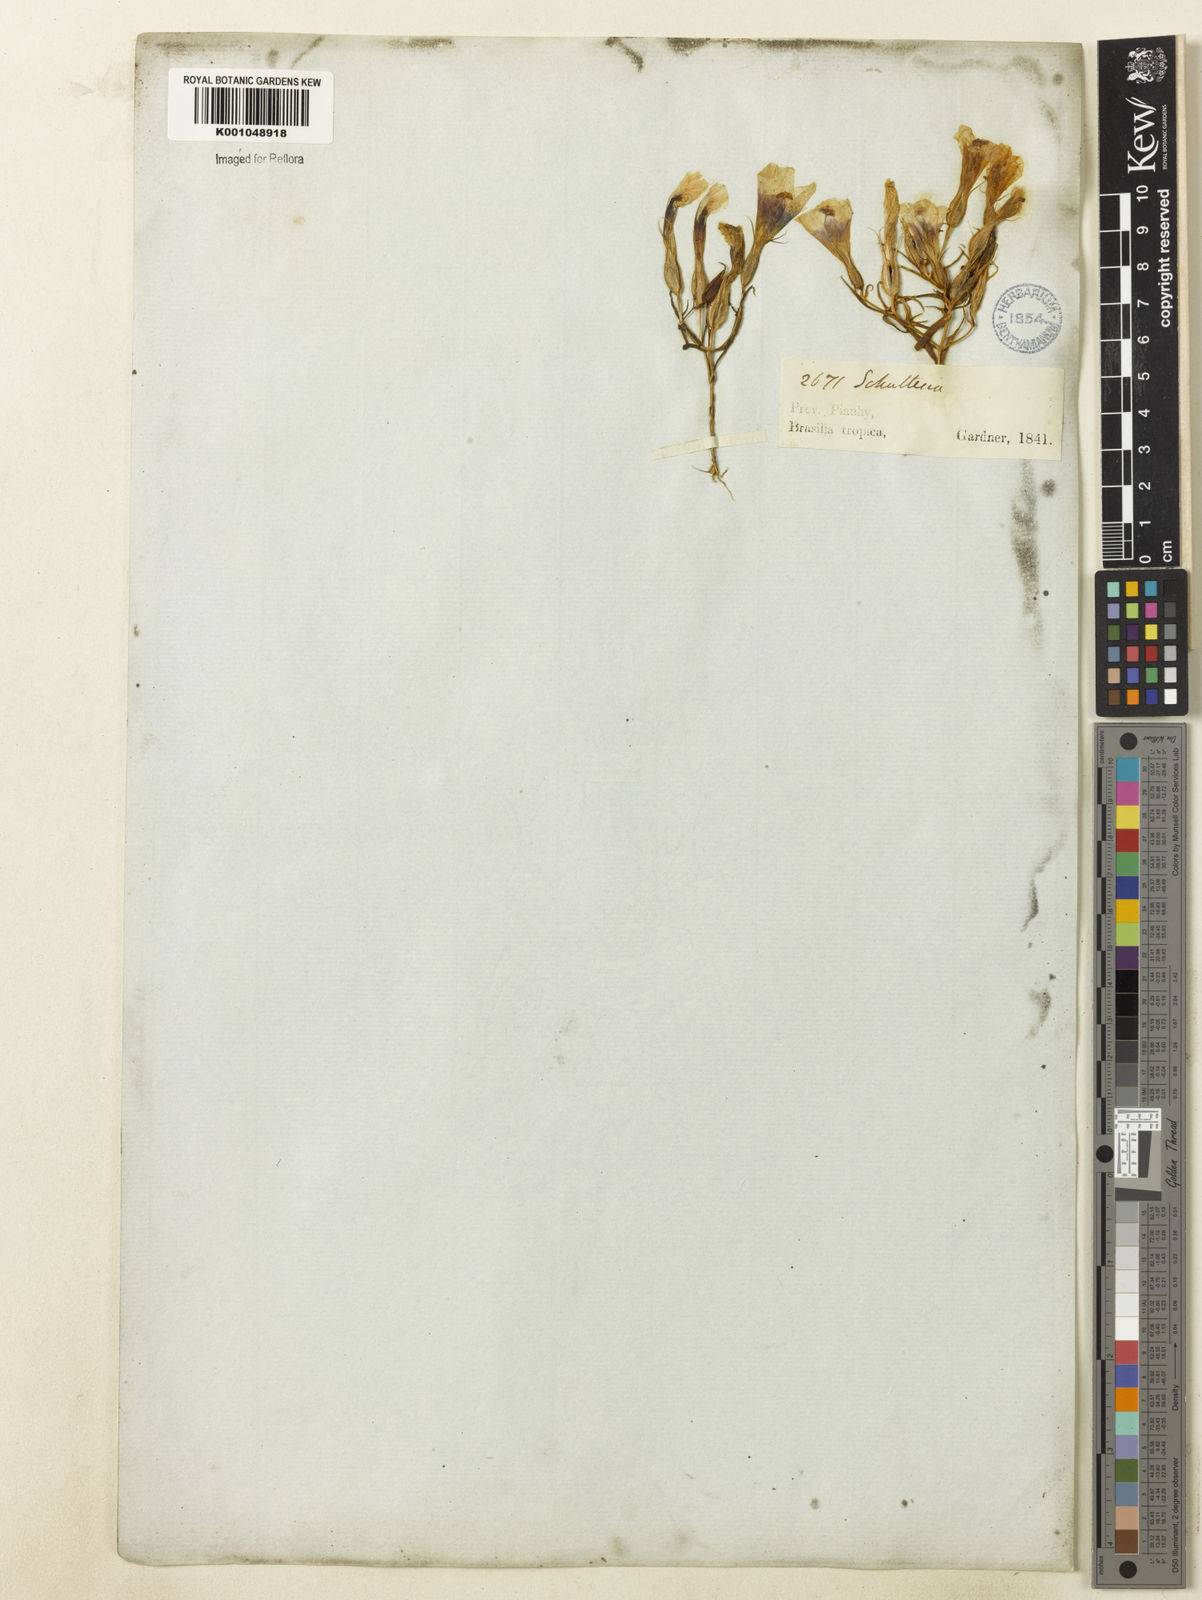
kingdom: Plantae
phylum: Tracheophyta
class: Magnoliopsida
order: Gentianales
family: Gentianaceae
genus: Schultesia
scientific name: Schultesia
